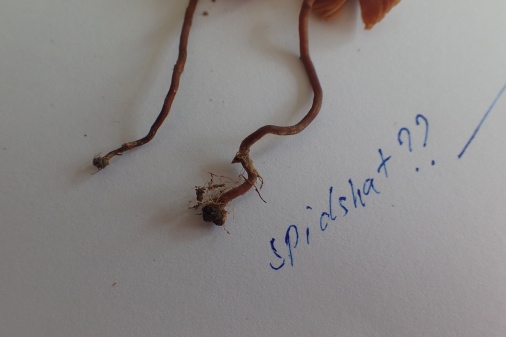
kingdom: Fungi
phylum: Basidiomycota
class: Agaricomycetes
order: Agaricales
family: Macrocystidiaceae
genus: Macrocystidia
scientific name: Macrocystidia cucumis
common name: Cucumber cap
